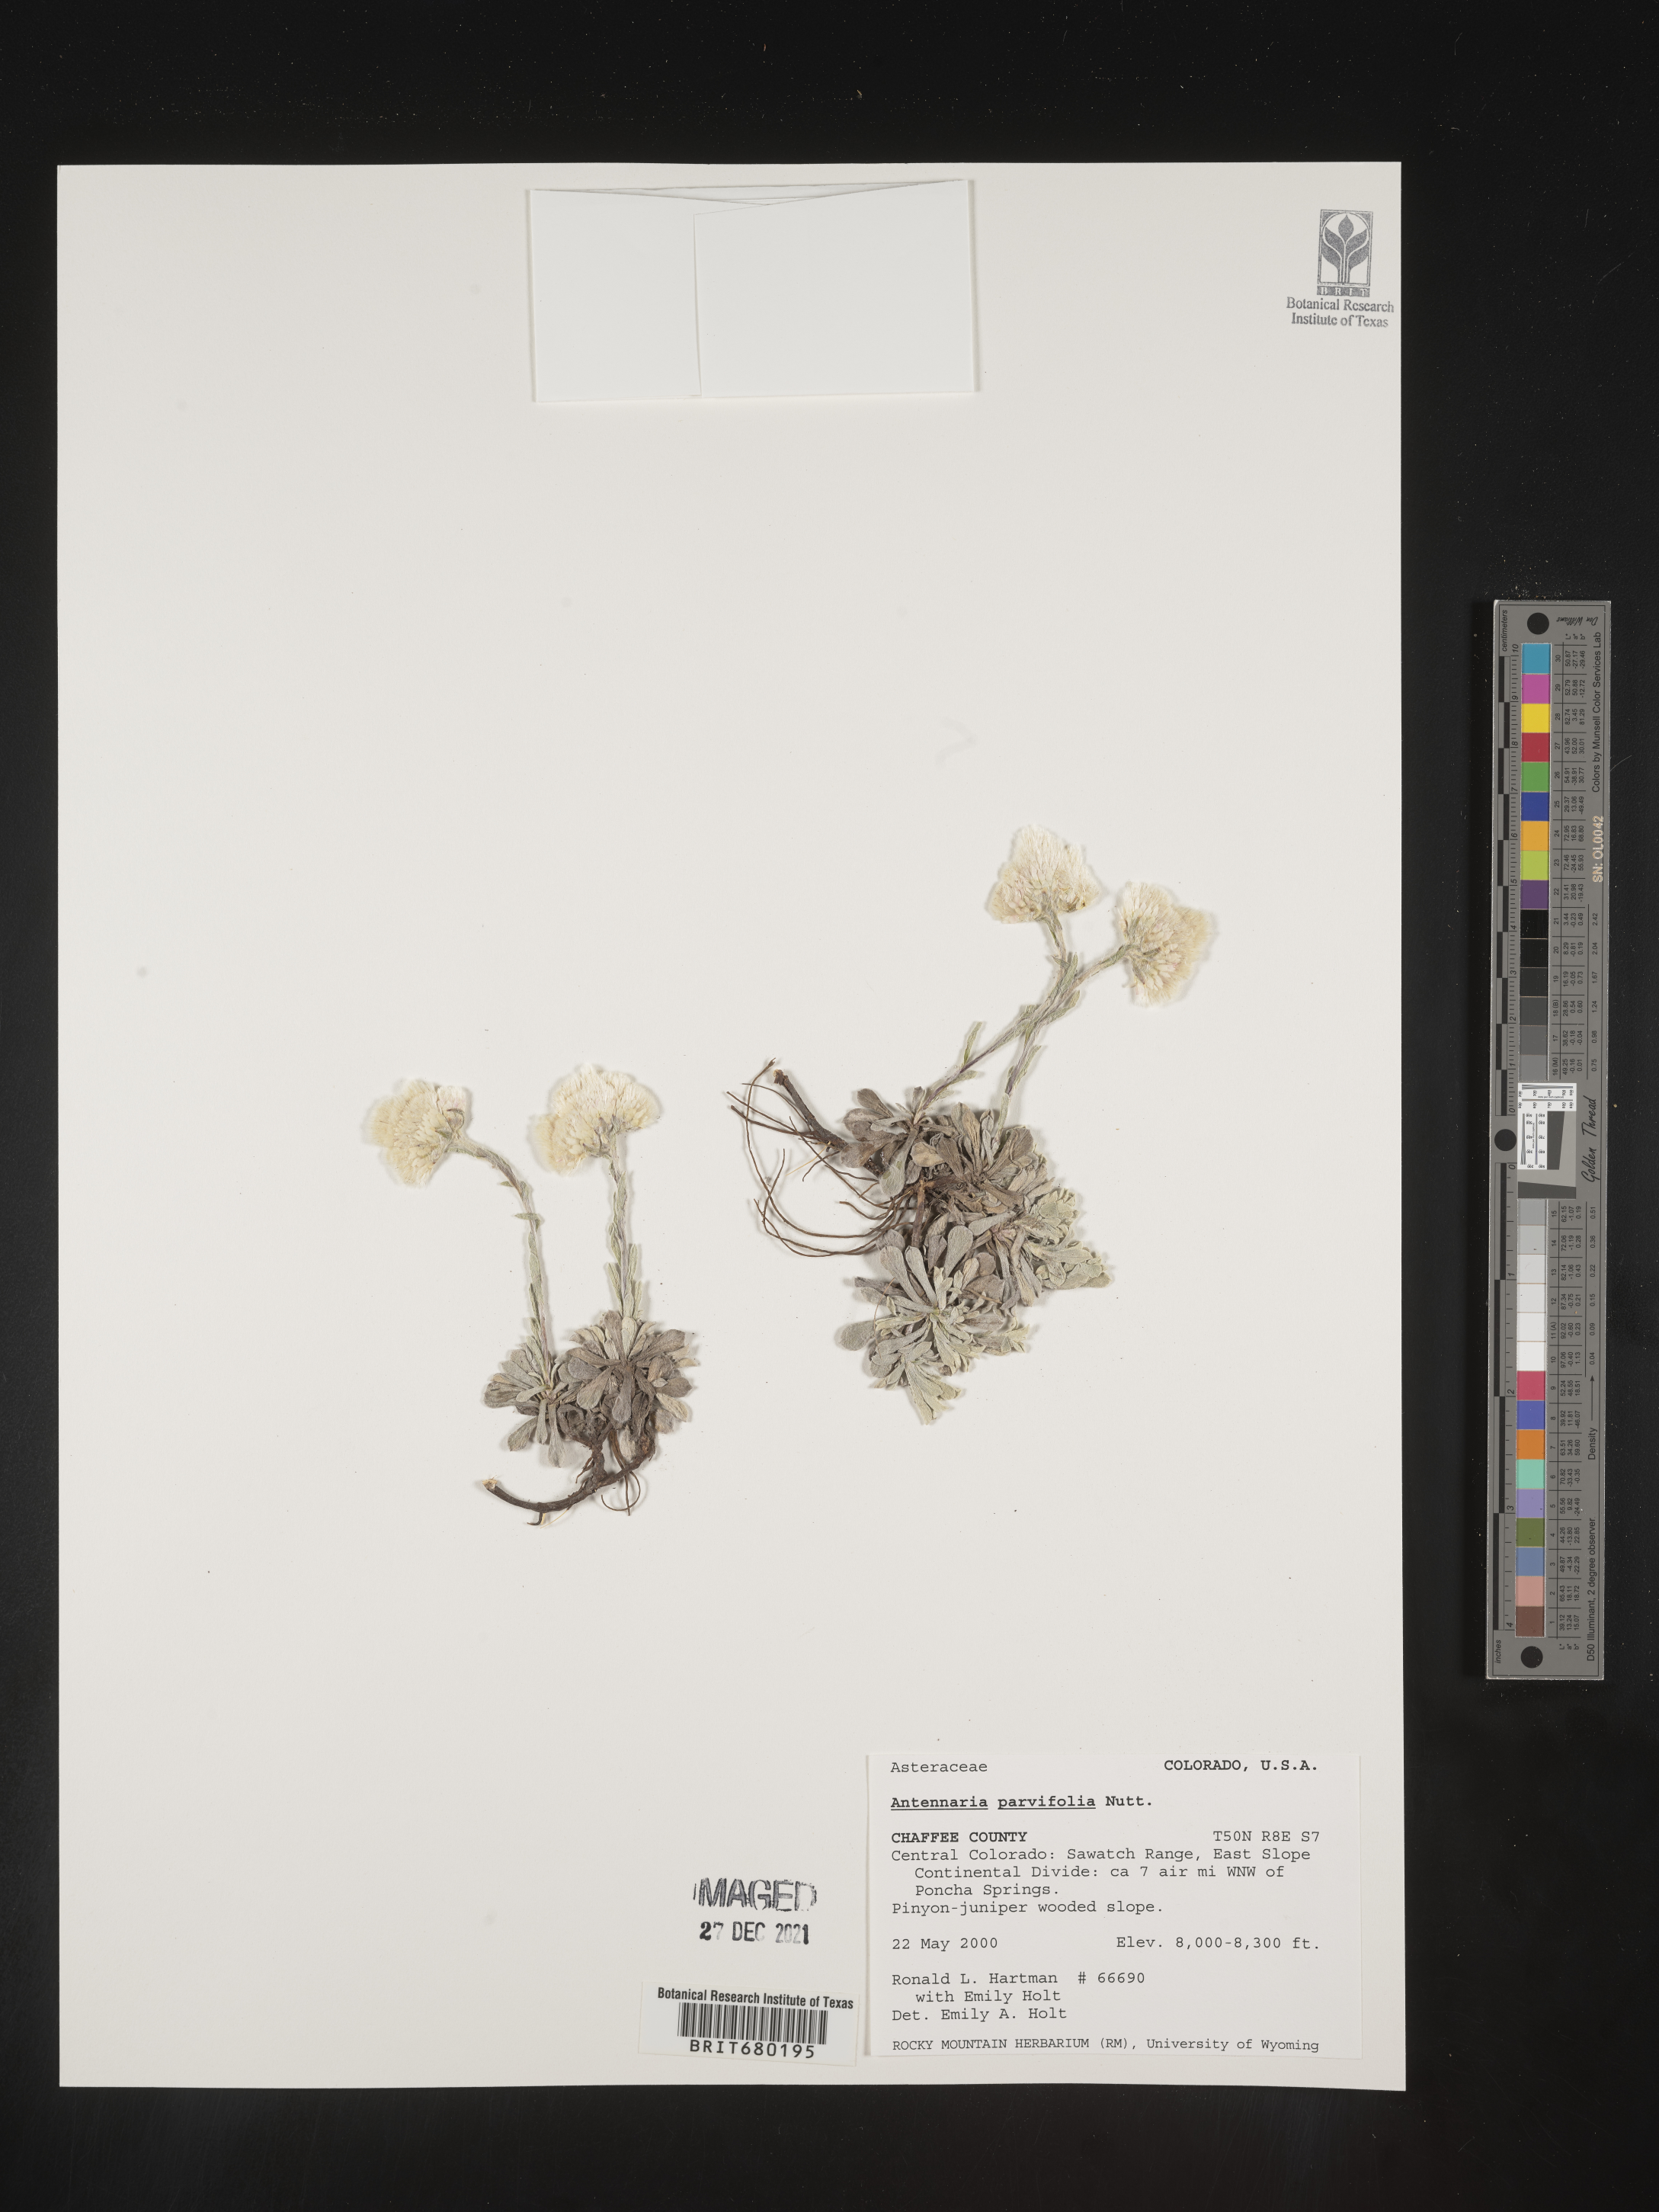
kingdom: Plantae
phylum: Tracheophyta
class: Magnoliopsida
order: Asterales
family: Asteraceae
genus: Antennaria
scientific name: Antennaria plantaginifolia
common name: Plantain-leaved pussytoes
